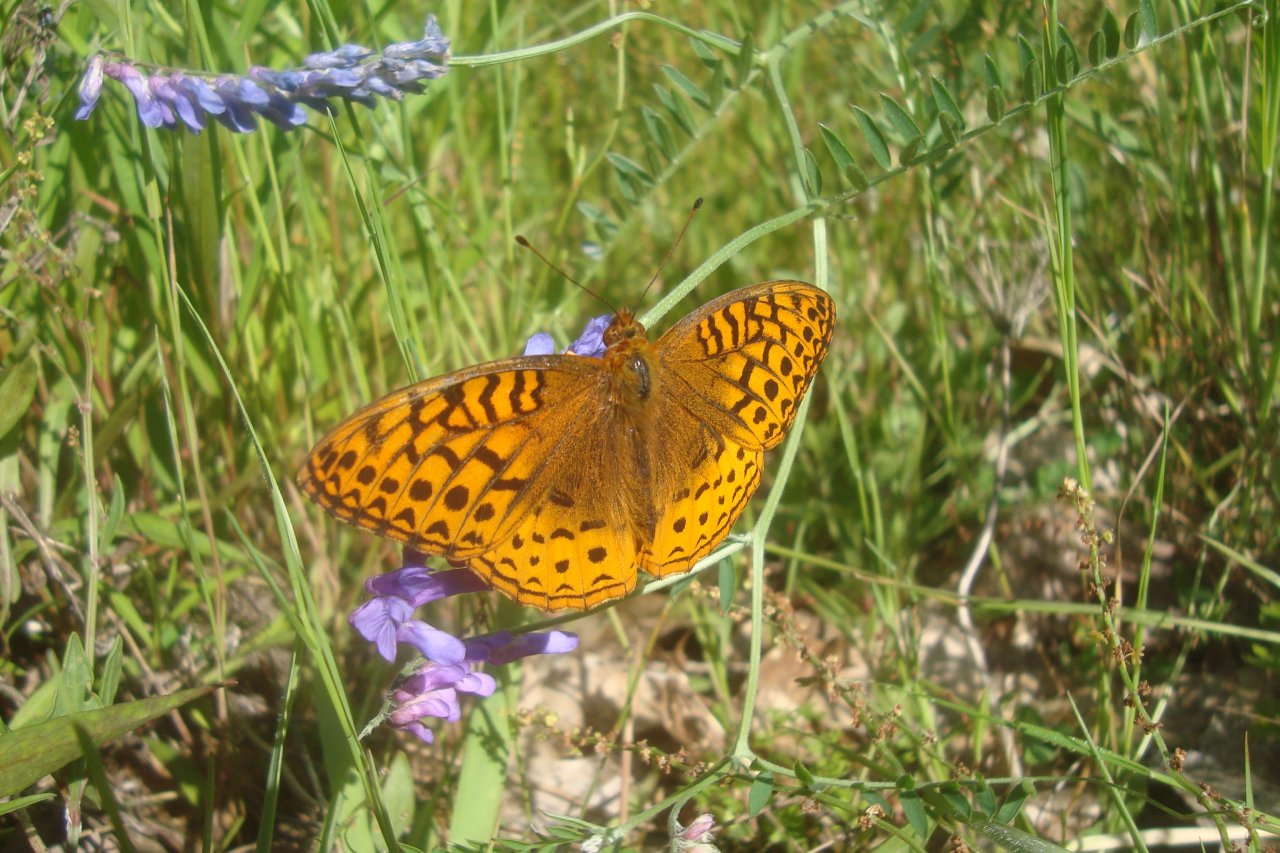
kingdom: Animalia
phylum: Arthropoda
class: Insecta
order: Lepidoptera
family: Nymphalidae
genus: Speyeria
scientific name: Speyeria cybele
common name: Great Spangled Fritillary
